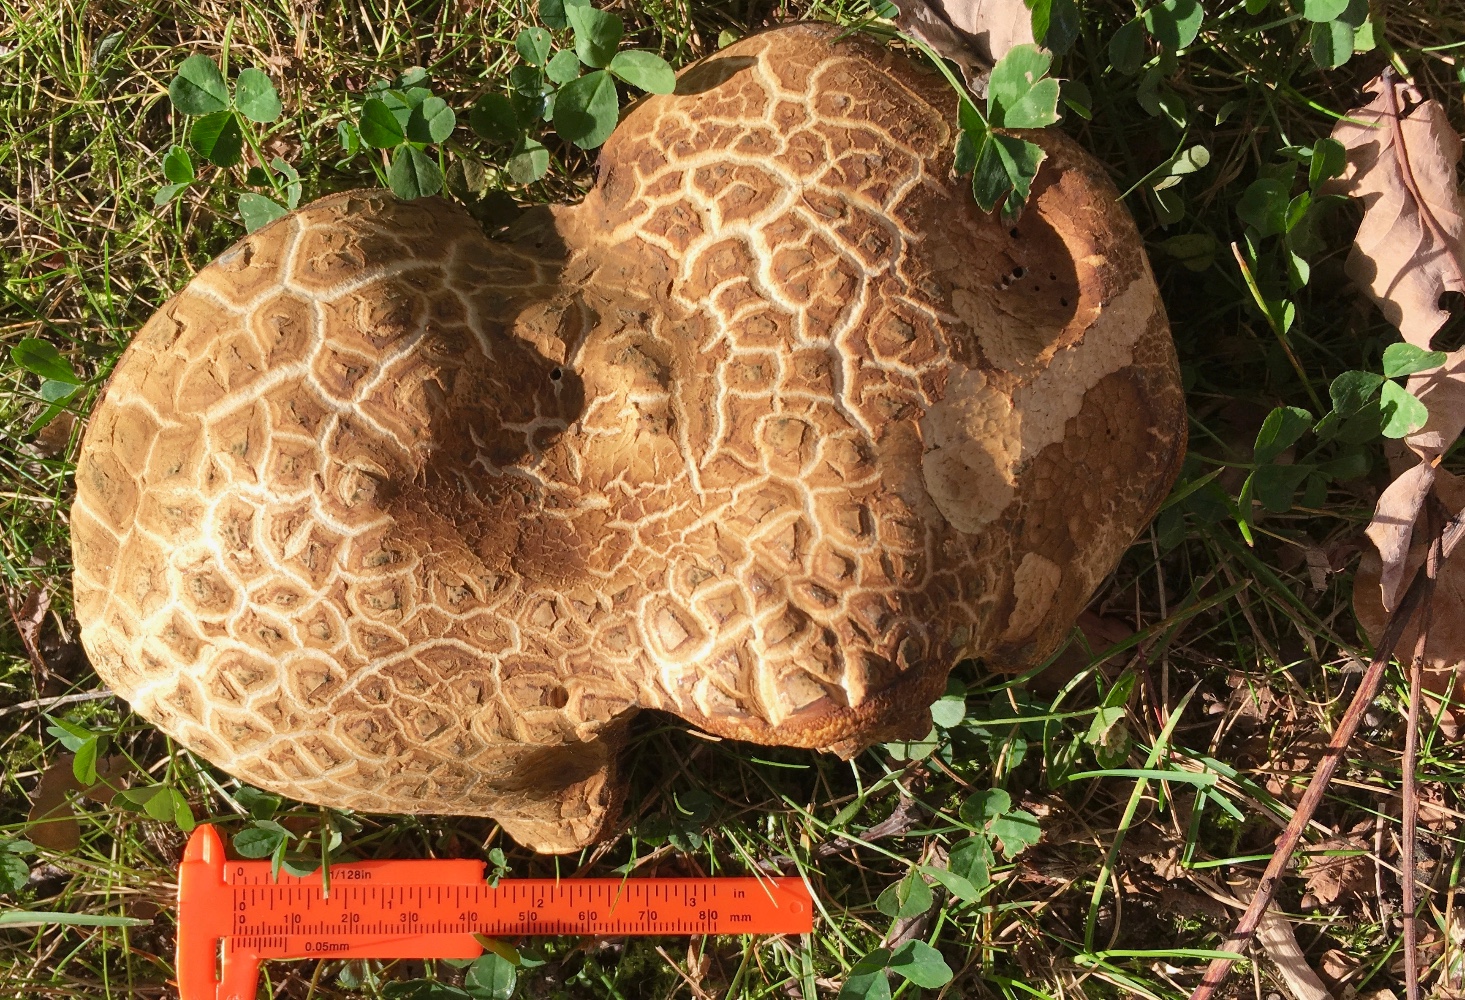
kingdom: Fungi
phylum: Basidiomycota
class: Agaricomycetes
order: Boletales
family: Boletaceae
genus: Caloboletus
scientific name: Caloboletus radicans
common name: rod-rørhat
